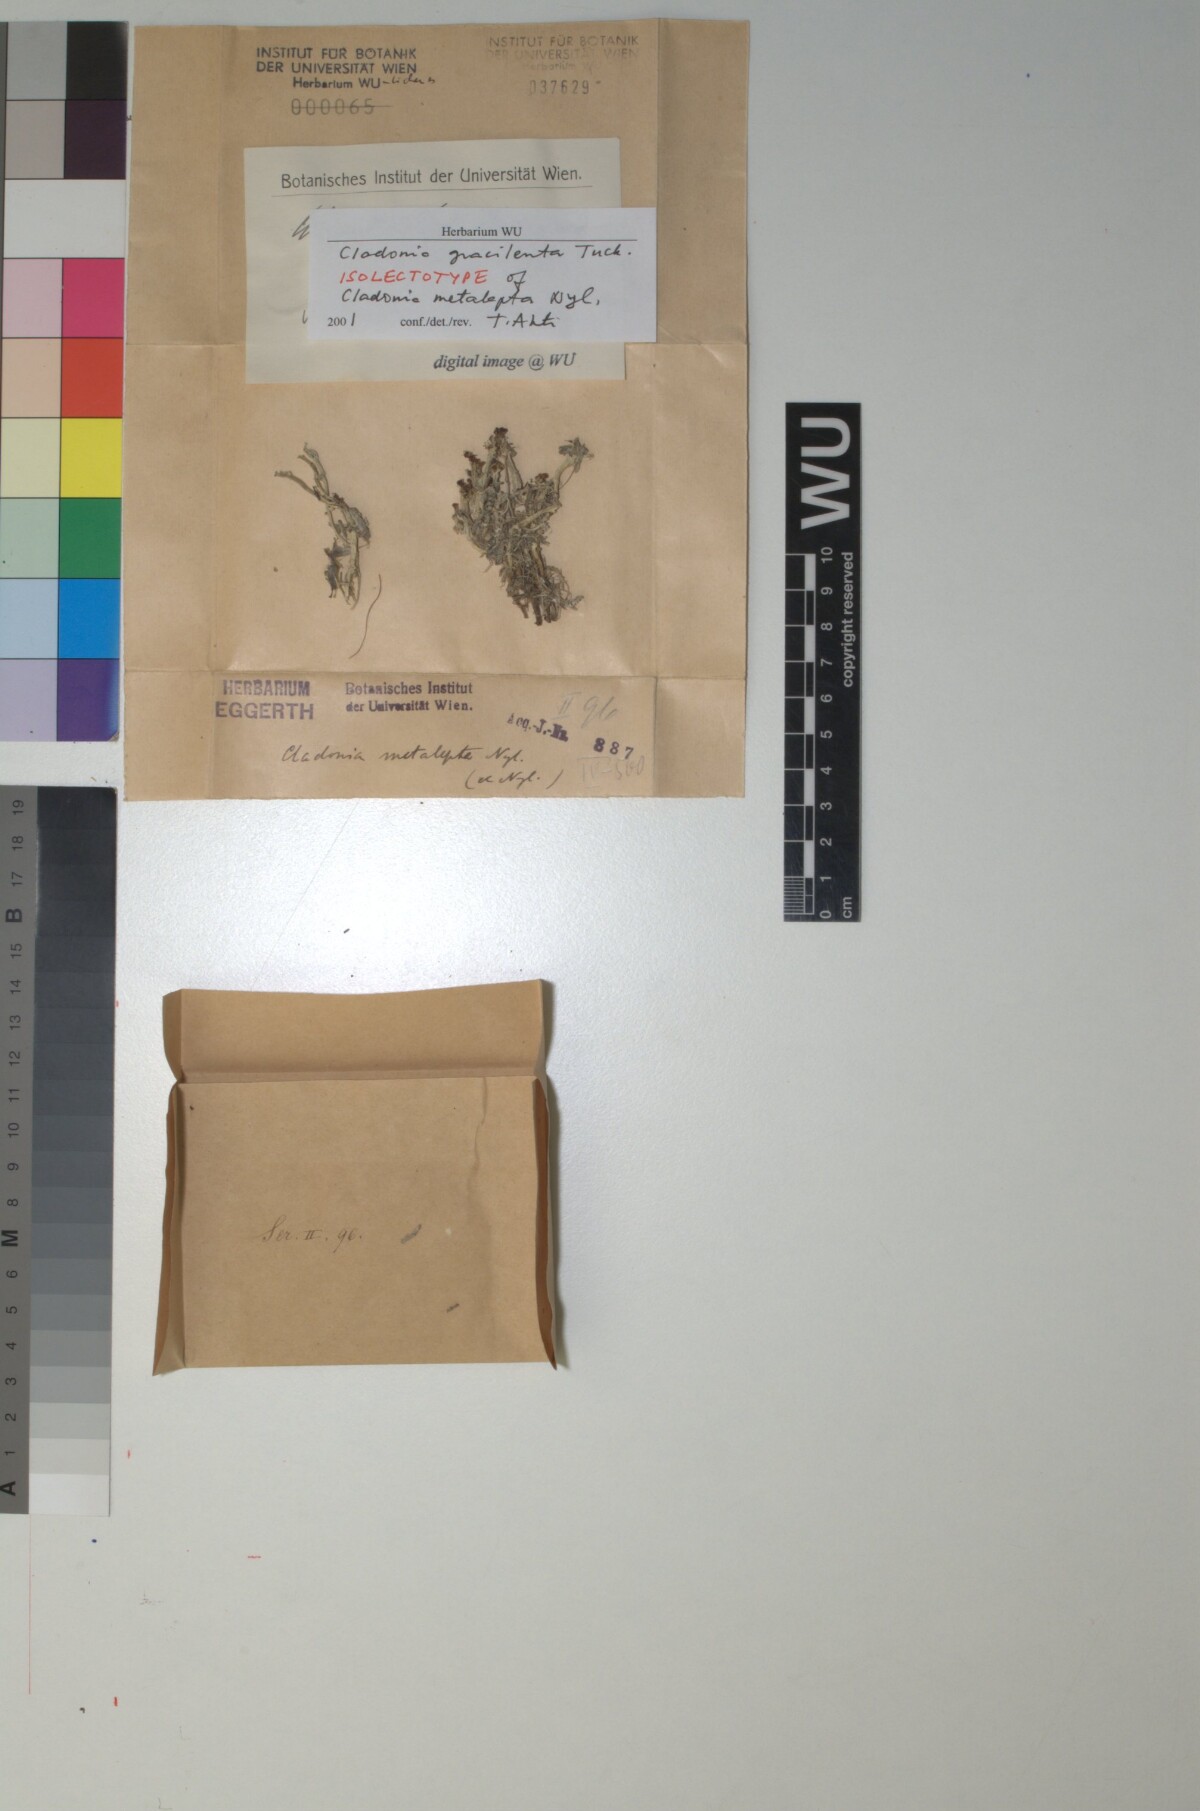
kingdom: Fungi
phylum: Ascomycota
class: Lecanoromycetes
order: Lecanorales
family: Cladoniaceae
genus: Cladonia
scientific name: Cladonia
